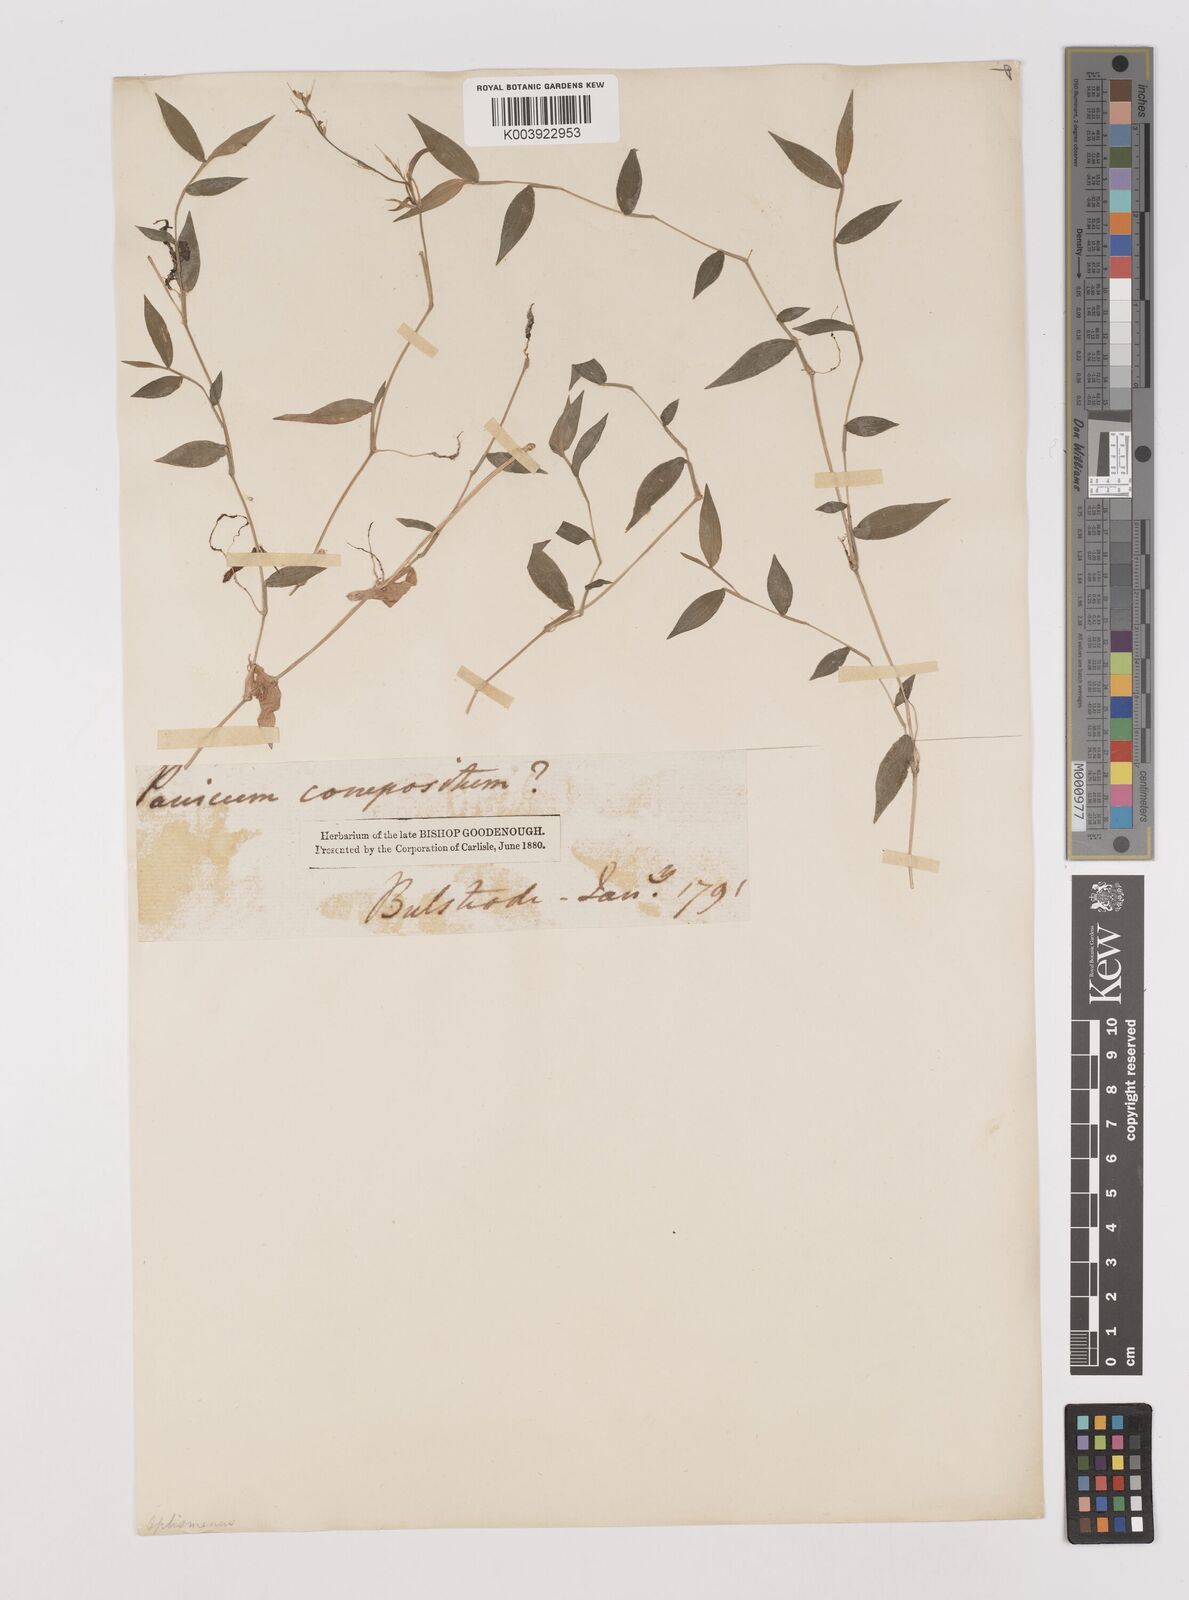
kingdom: Plantae
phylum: Tracheophyta
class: Liliopsida
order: Poales
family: Poaceae
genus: Oplismenus
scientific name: Oplismenus undulatifolius
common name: Wavyleaf basketgrass
